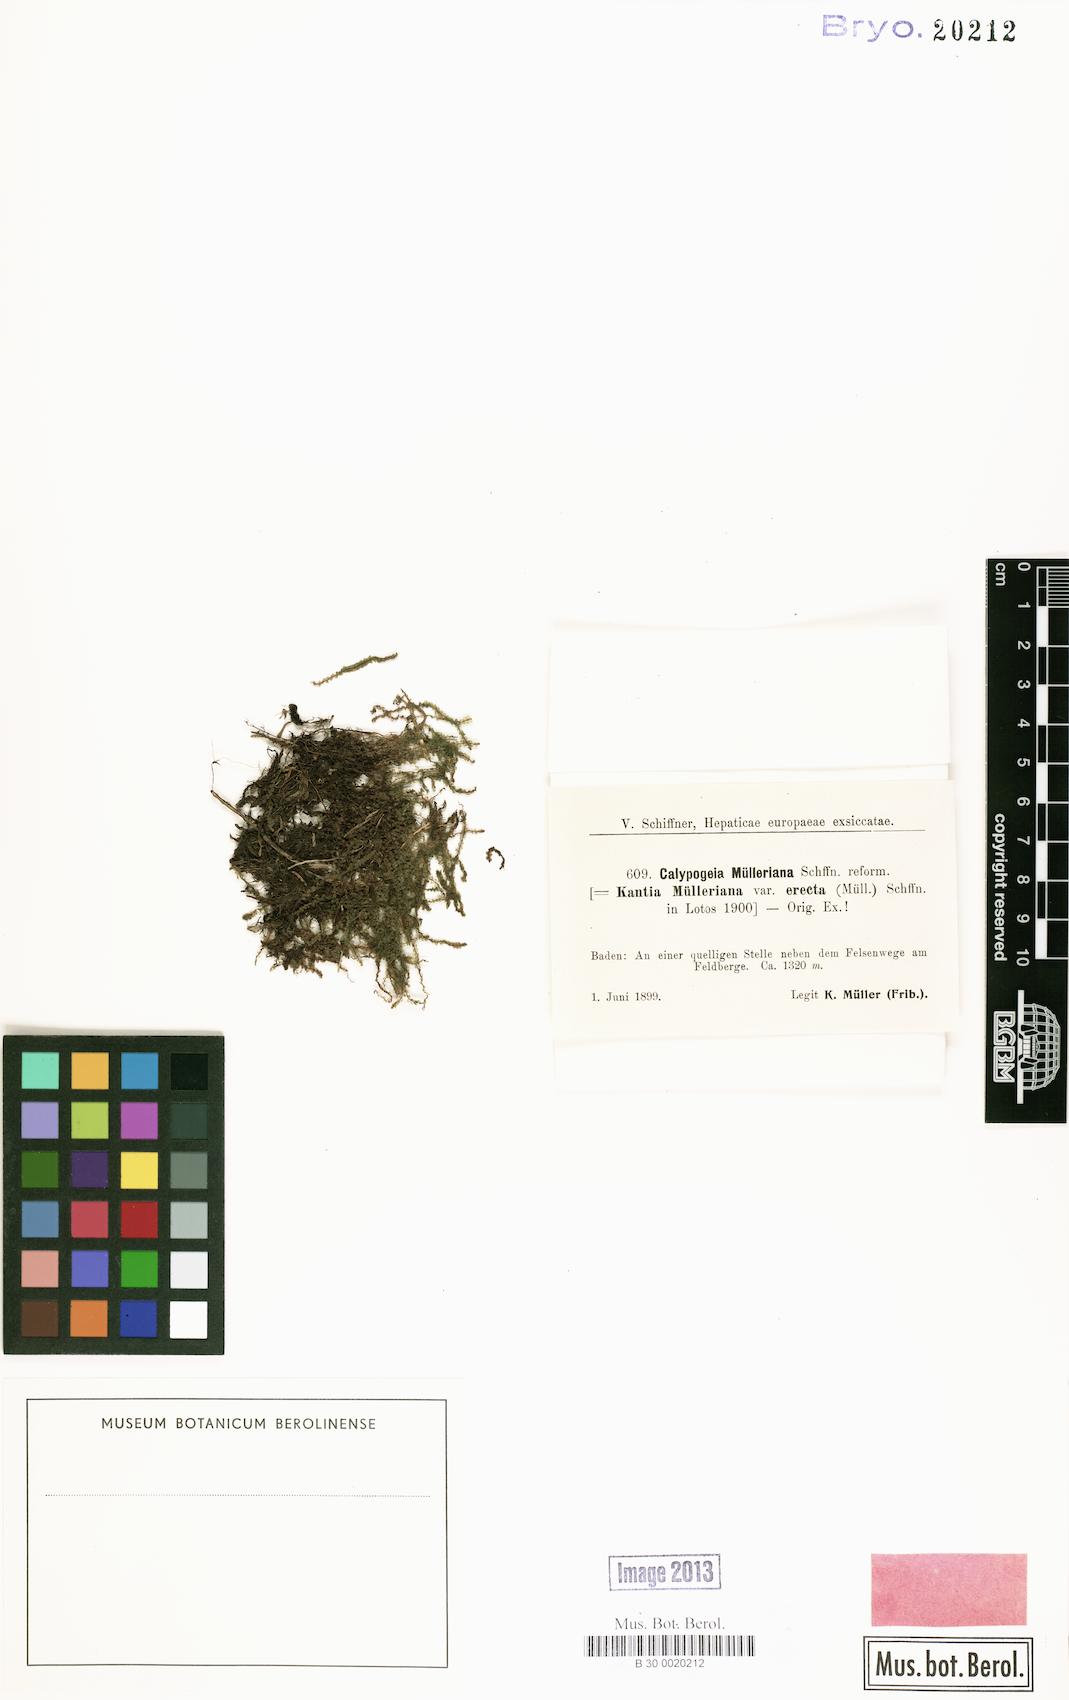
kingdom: Plantae
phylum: Marchantiophyta
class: Jungermanniopsida
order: Jungermanniales
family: Calypogeiaceae
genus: Calypogeia
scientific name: Calypogeia muelleriana
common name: Mueller s pouchwort
